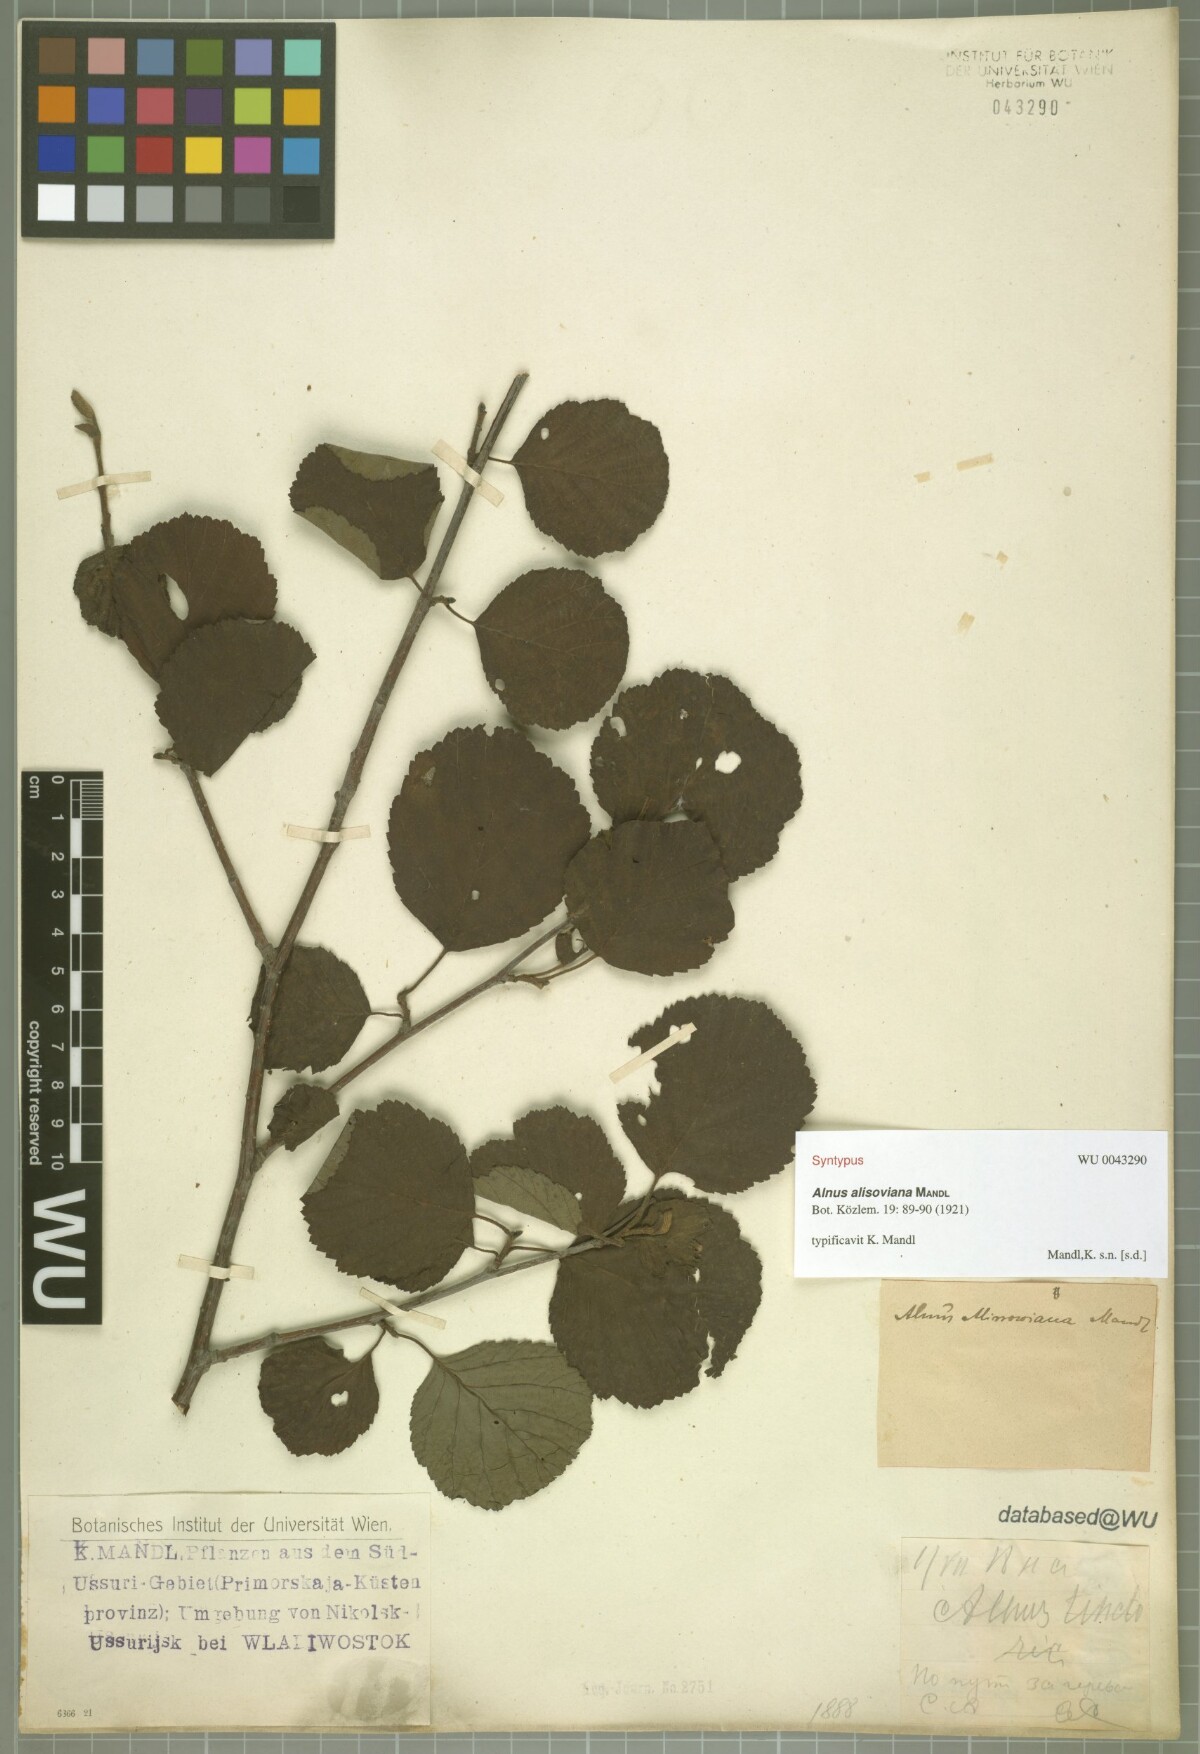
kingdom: Plantae
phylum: Tracheophyta
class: Magnoliopsida
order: Fagales
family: Betulaceae
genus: Alnus
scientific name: Alnus incana
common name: Grey alder
